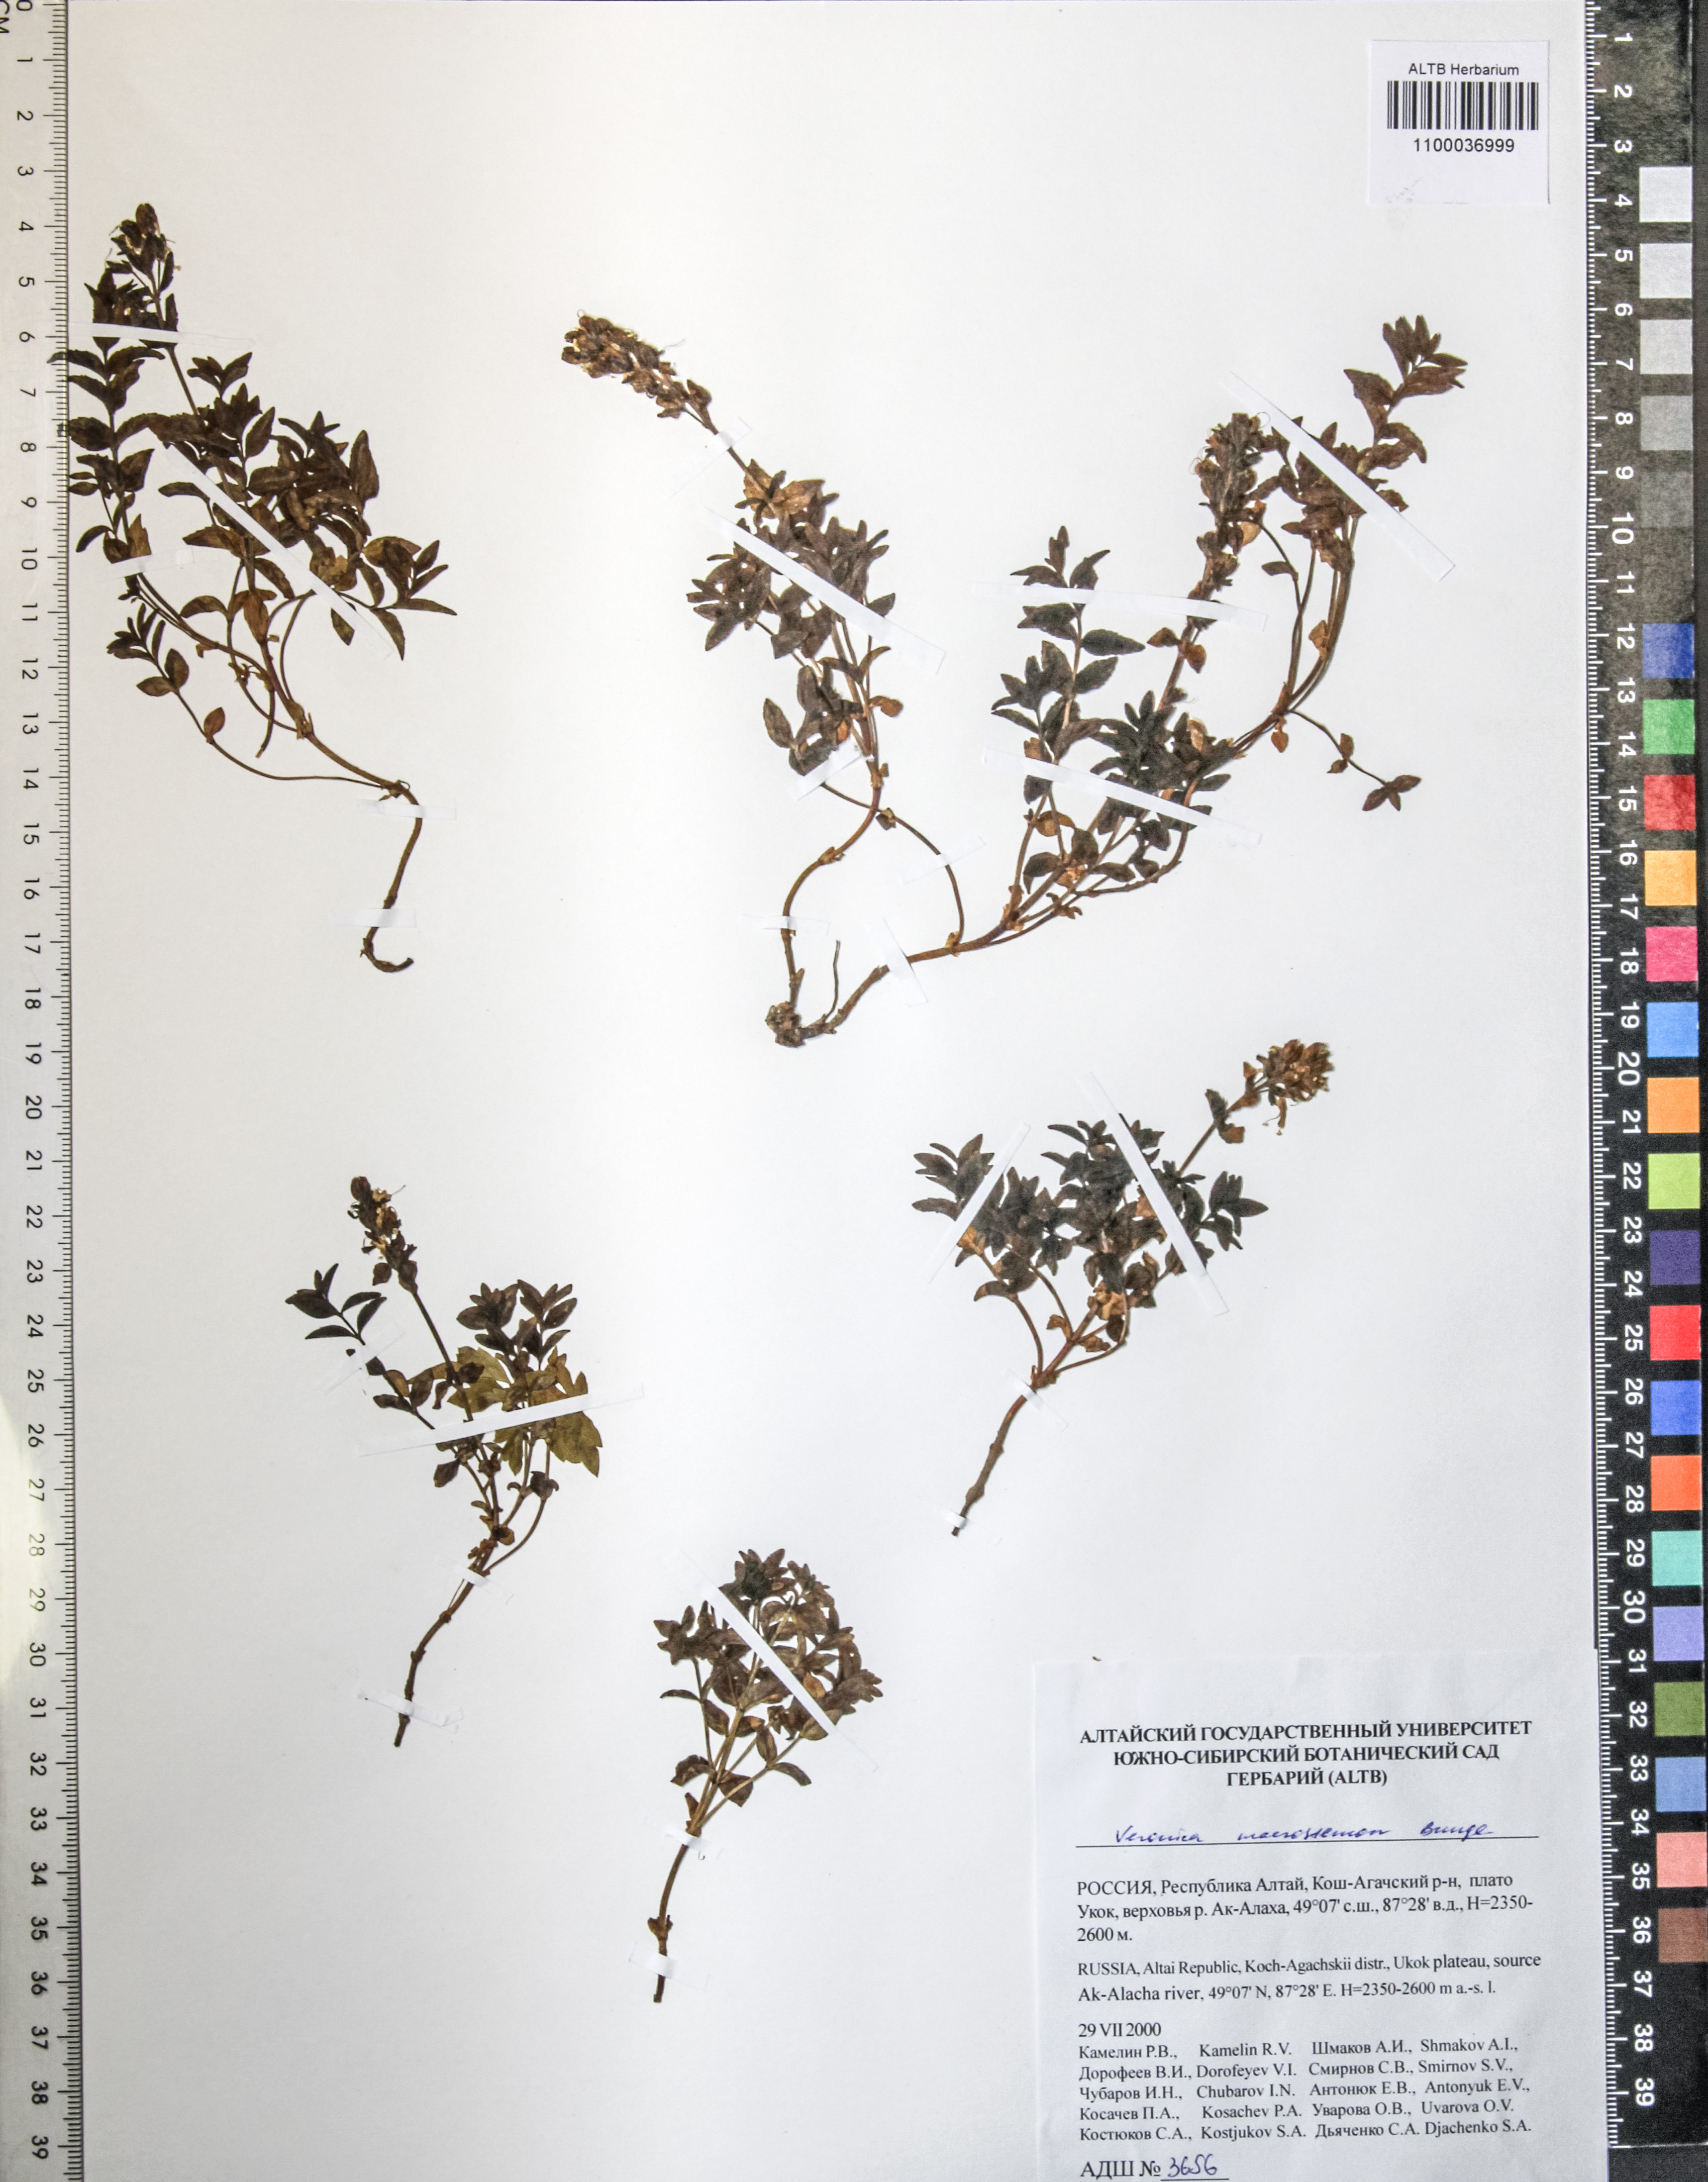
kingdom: Plantae
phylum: Tracheophyta
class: Magnoliopsida
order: Lamiales
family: Plantaginaceae
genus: Veronica
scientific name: Veronica macrostemon
